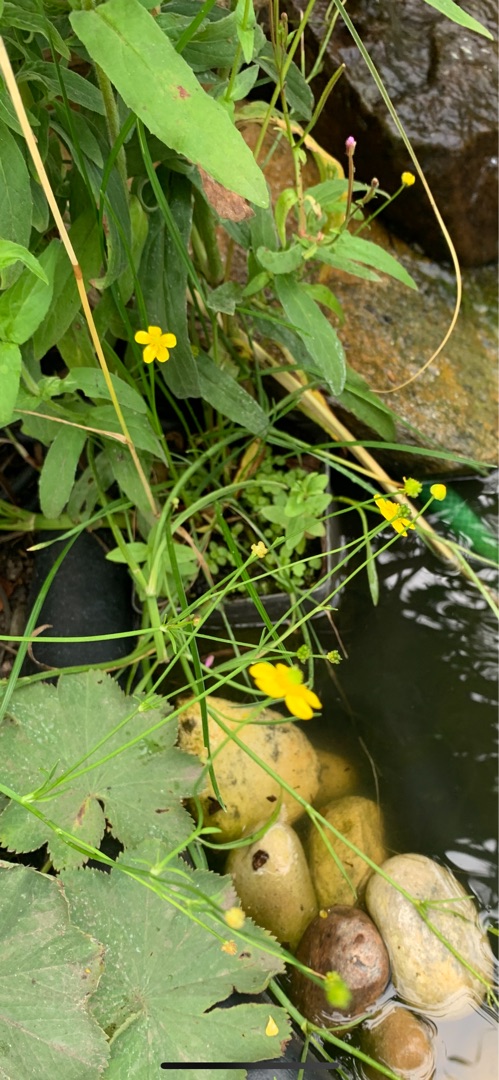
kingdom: Plantae
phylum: Tracheophyta
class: Magnoliopsida
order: Ranunculales
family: Ranunculaceae
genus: Ranunculus
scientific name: Ranunculus flammula
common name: Kær-ranunkel
